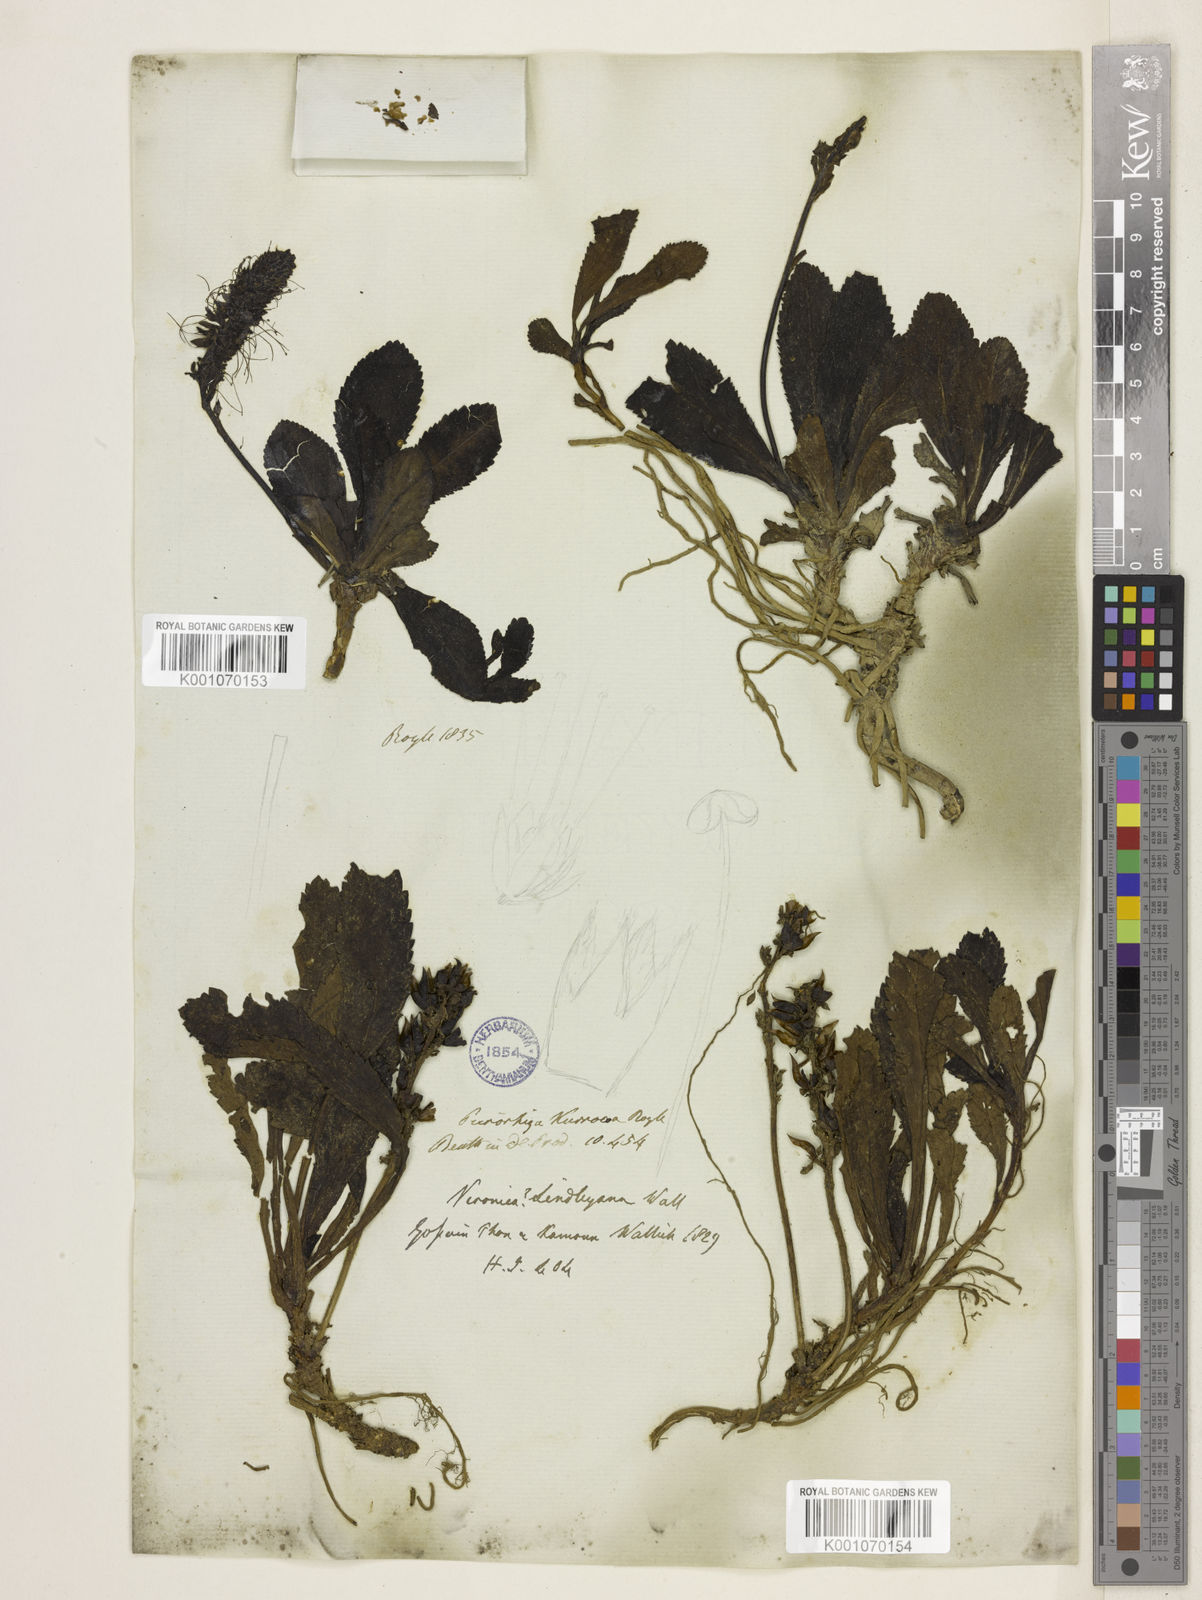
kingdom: Plantae
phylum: Tracheophyta
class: Magnoliopsida
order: Lamiales
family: Plantaginaceae
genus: Picrorhiza
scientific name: Picrorhiza
